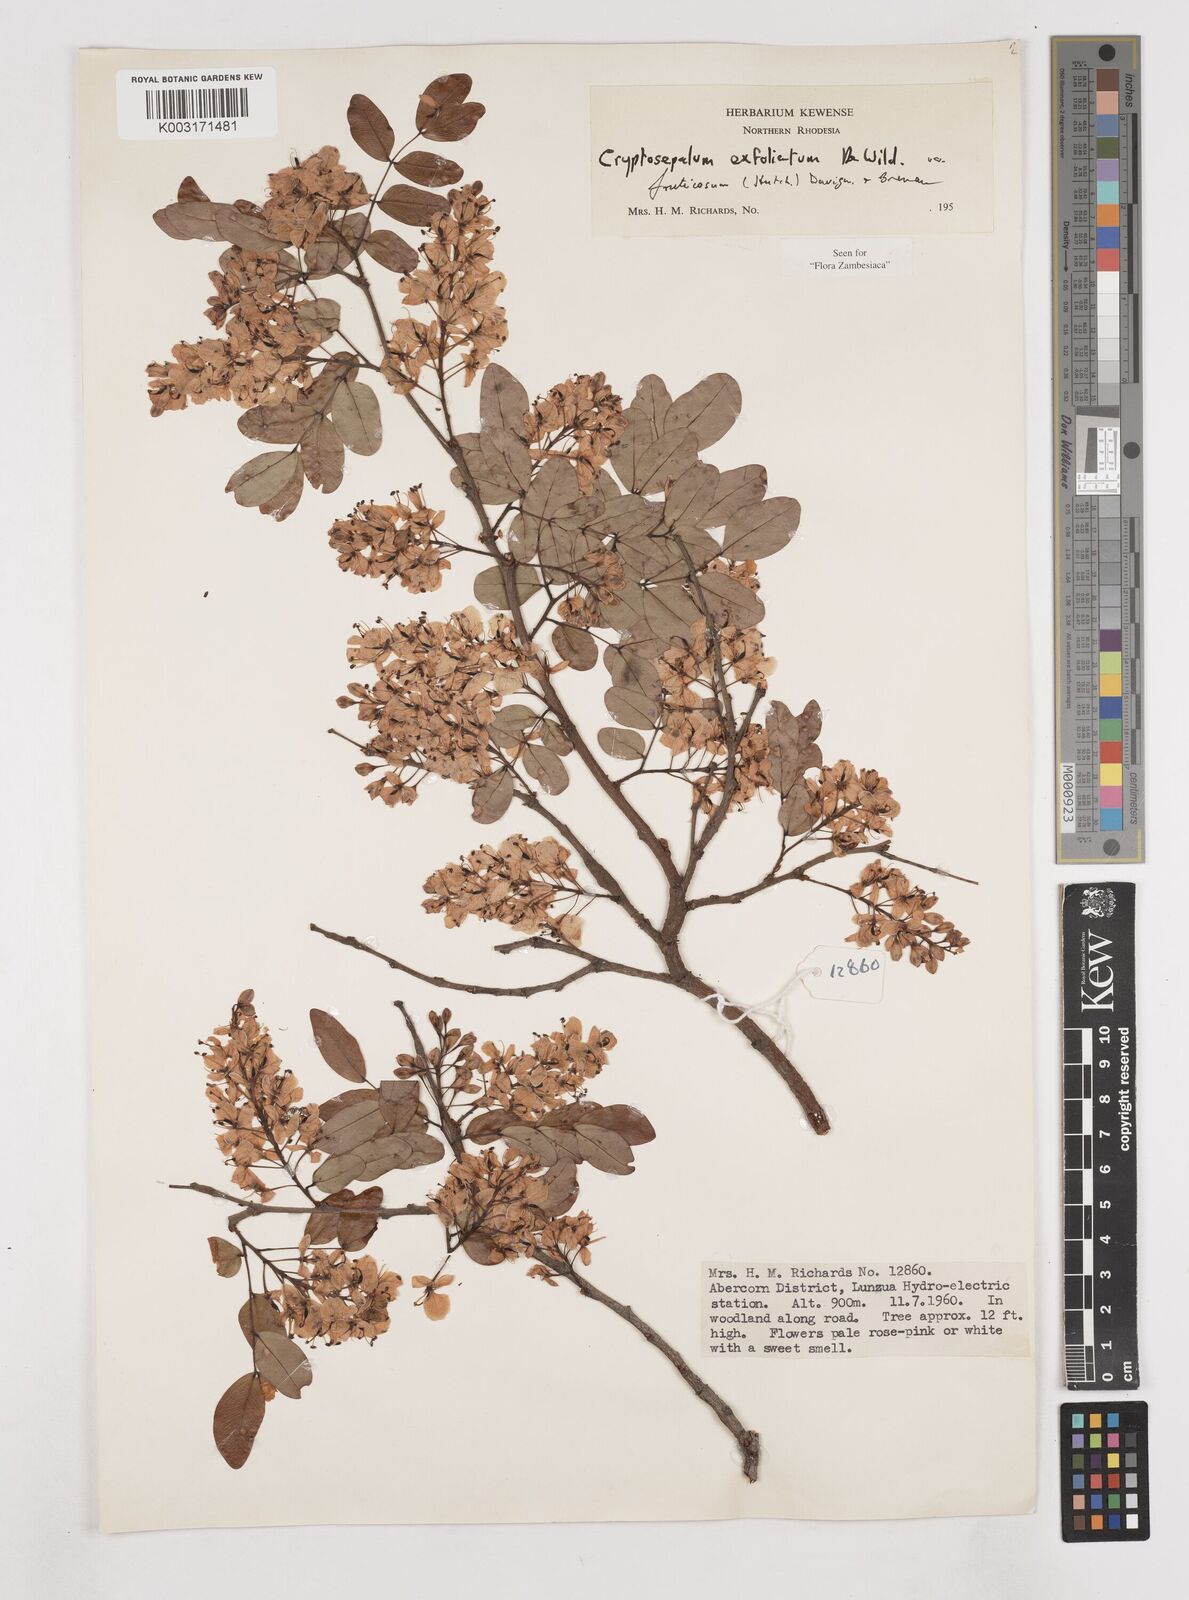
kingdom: Plantae
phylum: Tracheophyta
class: Magnoliopsida
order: Fabales
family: Fabaceae
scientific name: Fabaceae
